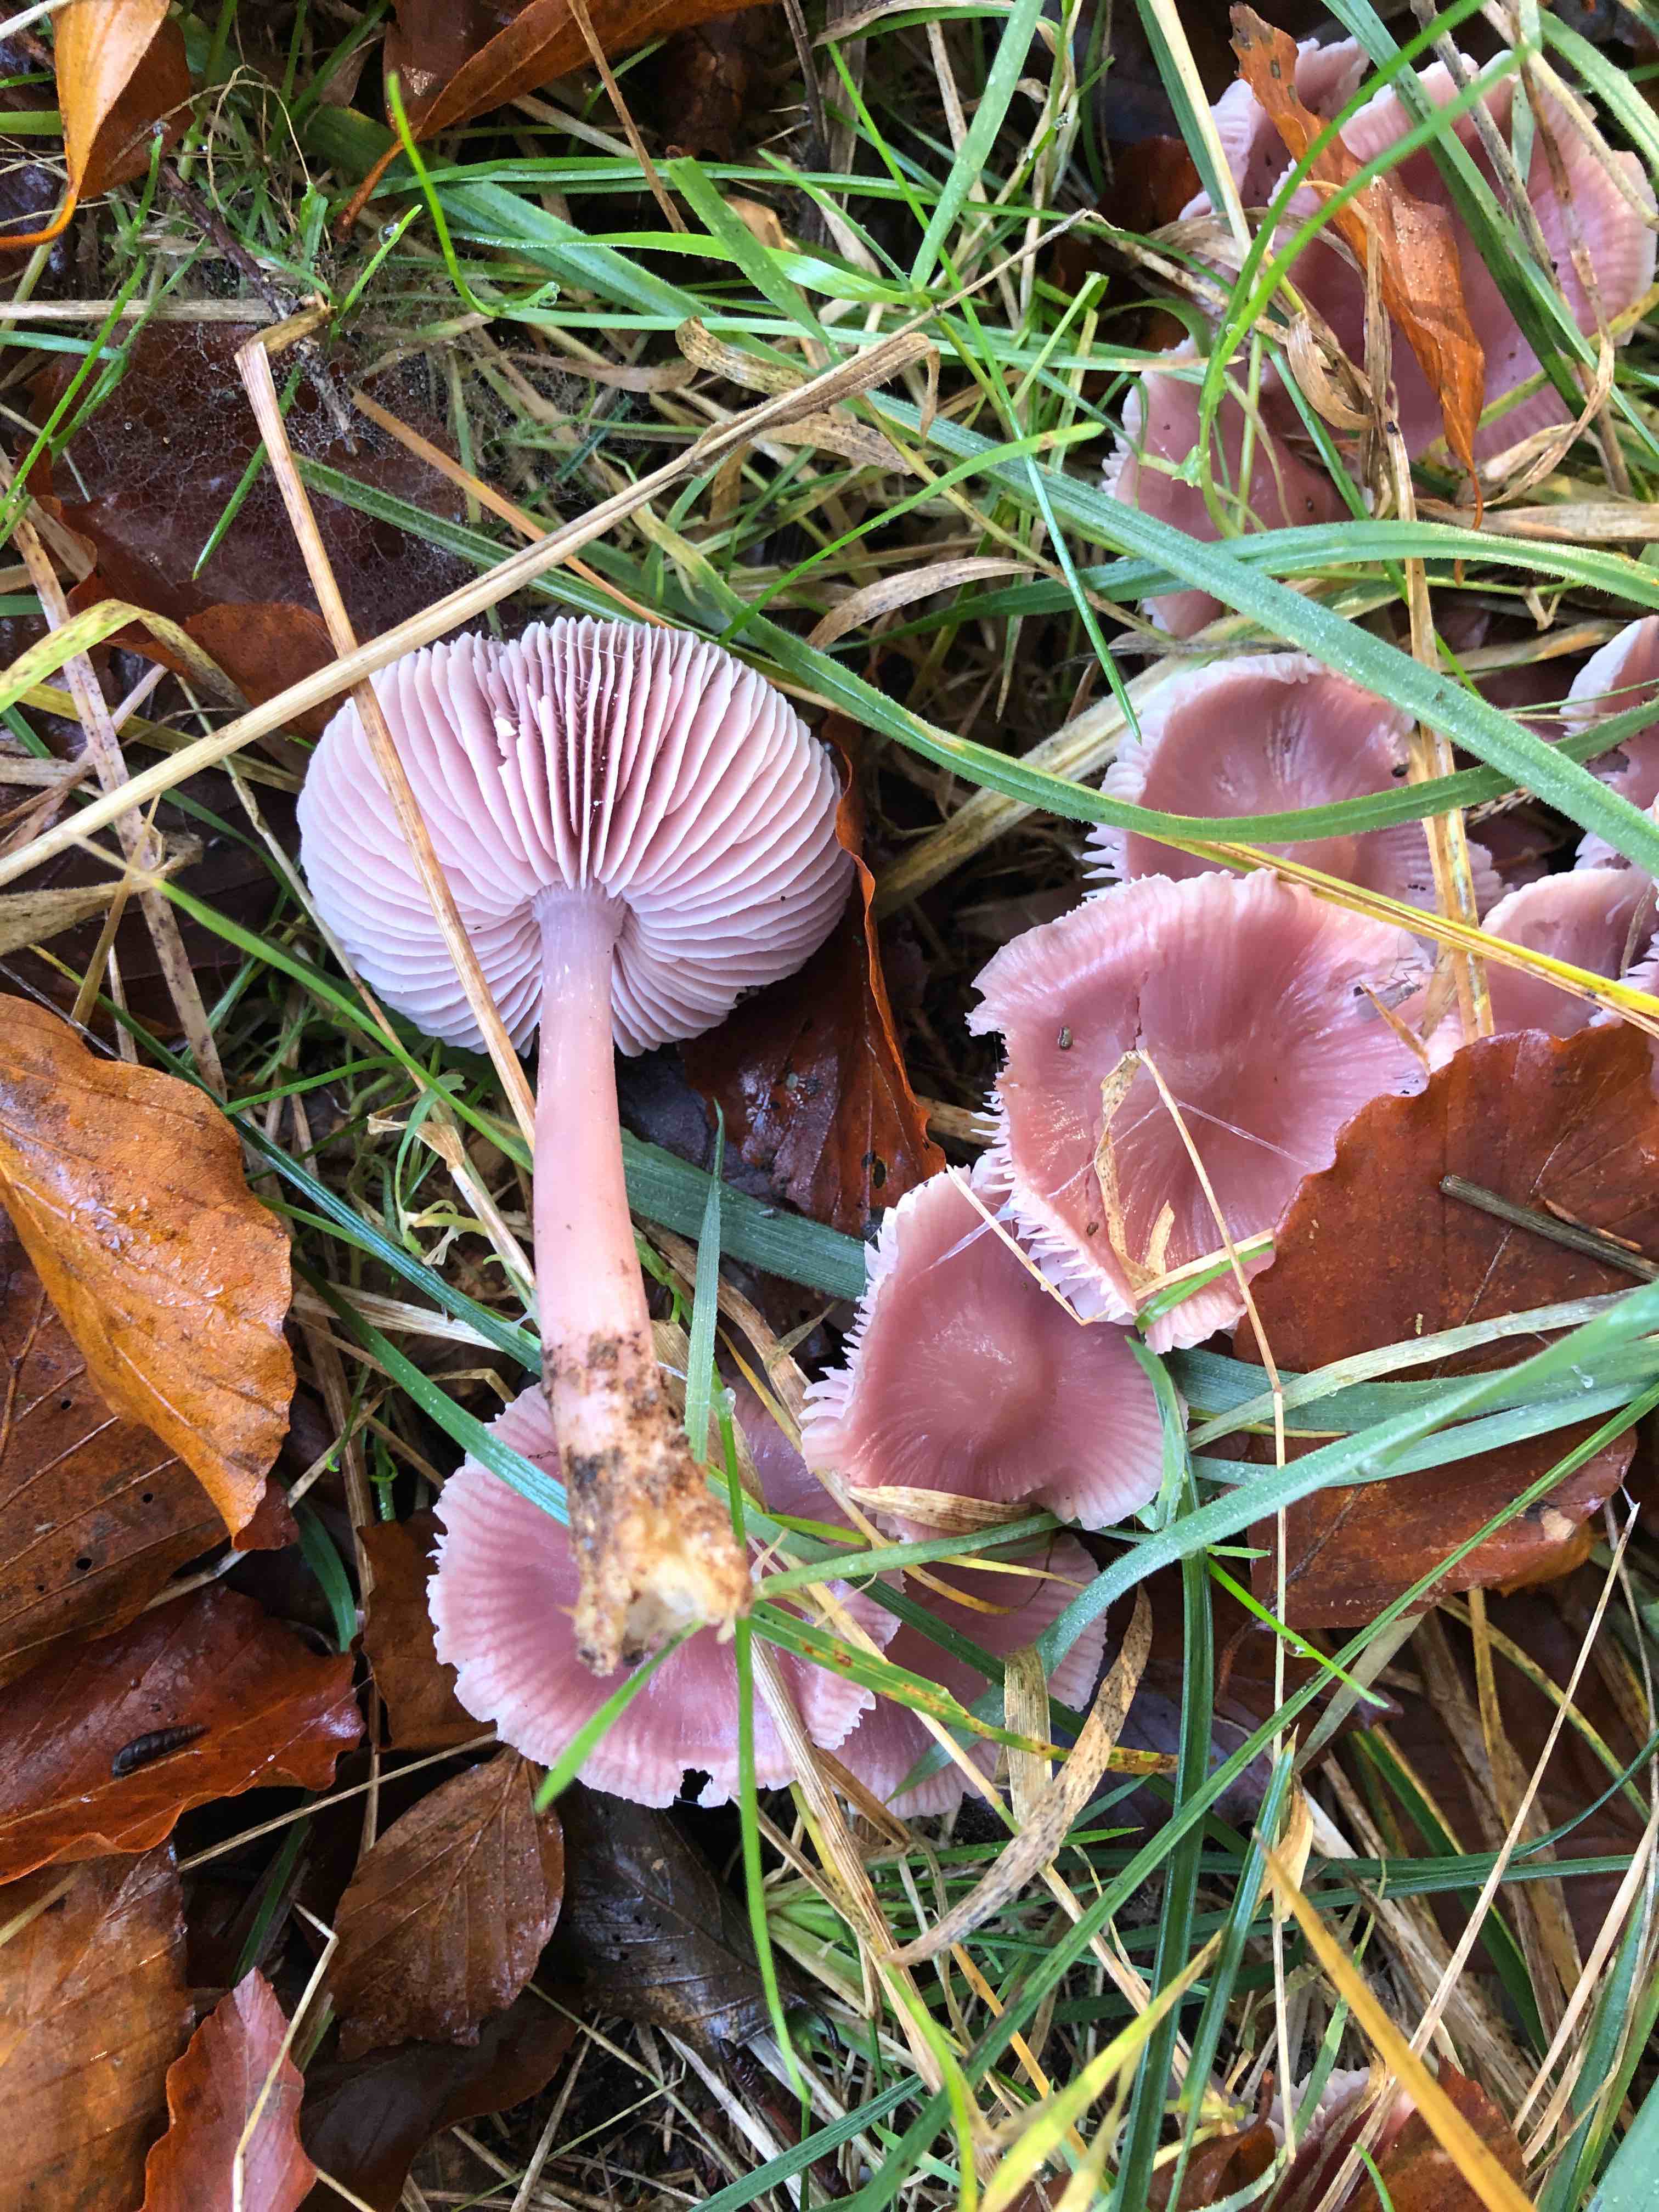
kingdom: Fungi
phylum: Basidiomycota
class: Agaricomycetes
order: Agaricales
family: Mycenaceae
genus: Mycena
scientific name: Mycena rosea
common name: rosa huesvamp
